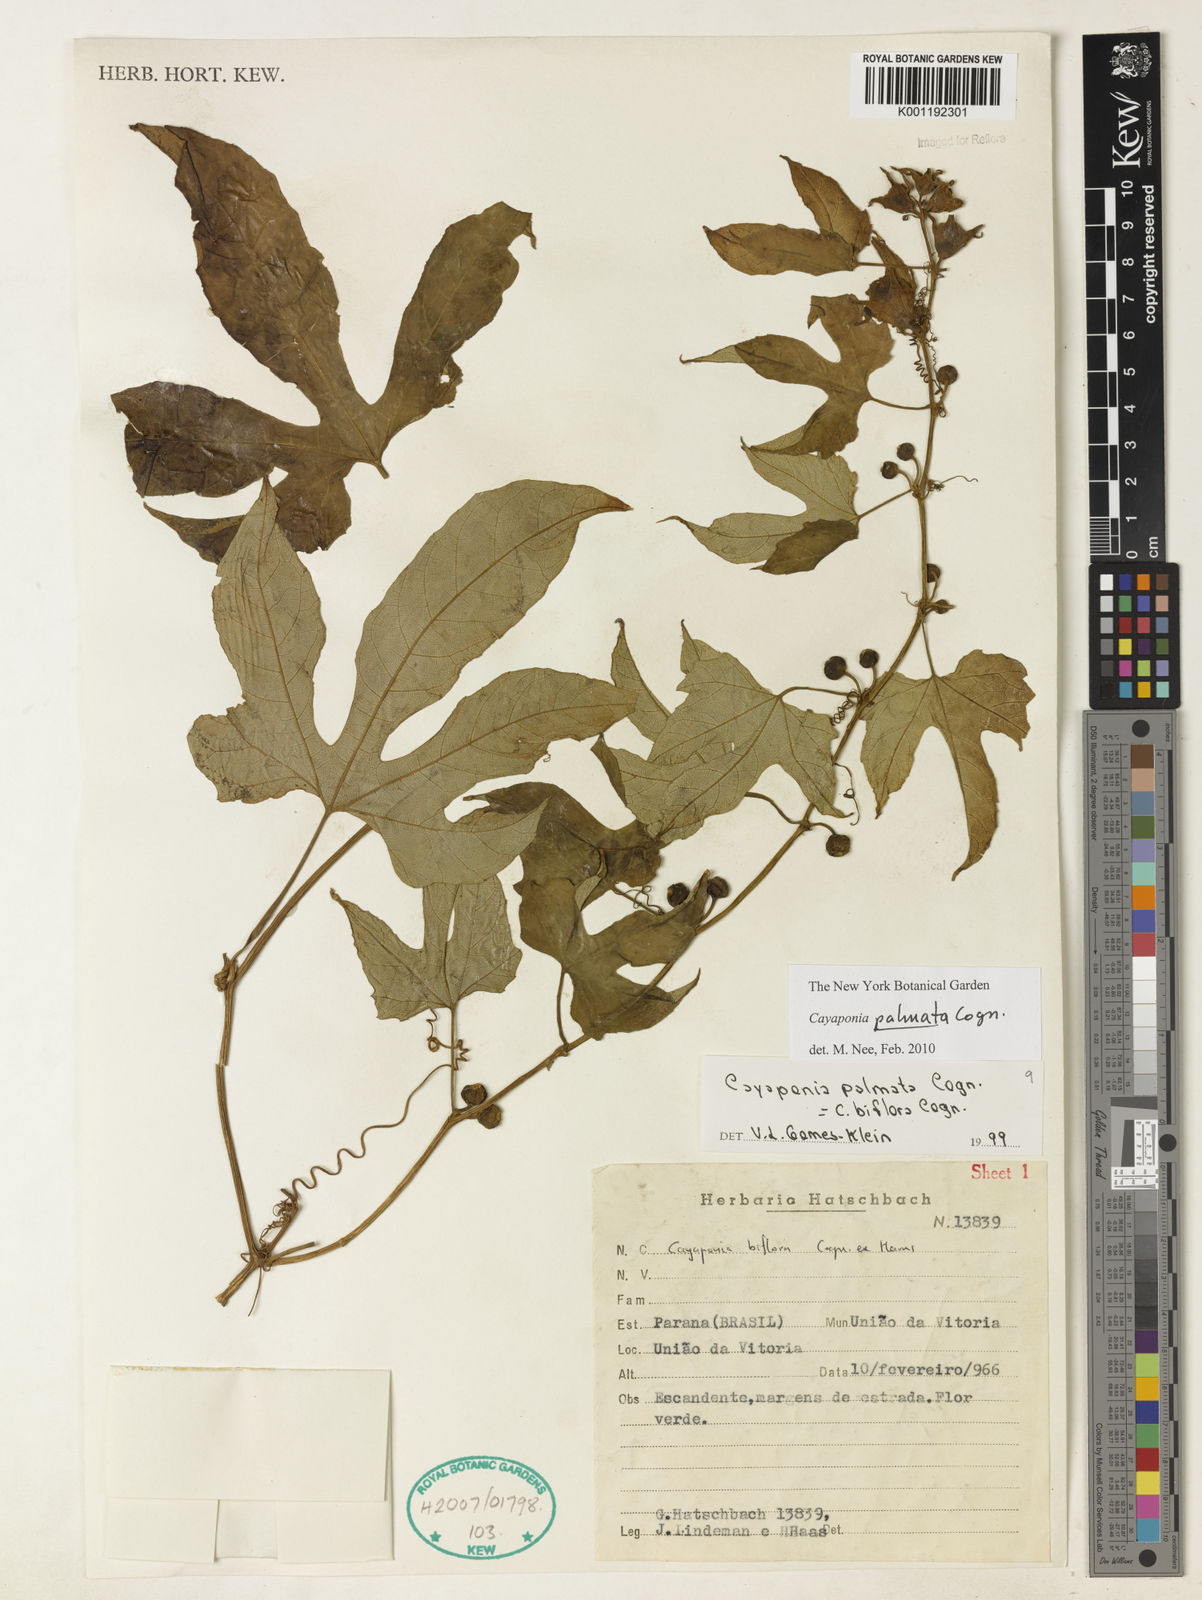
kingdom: Plantae
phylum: Tracheophyta
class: Magnoliopsida
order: Cucurbitales
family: Cucurbitaceae
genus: Cayaponia
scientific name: Cayaponia palmata
